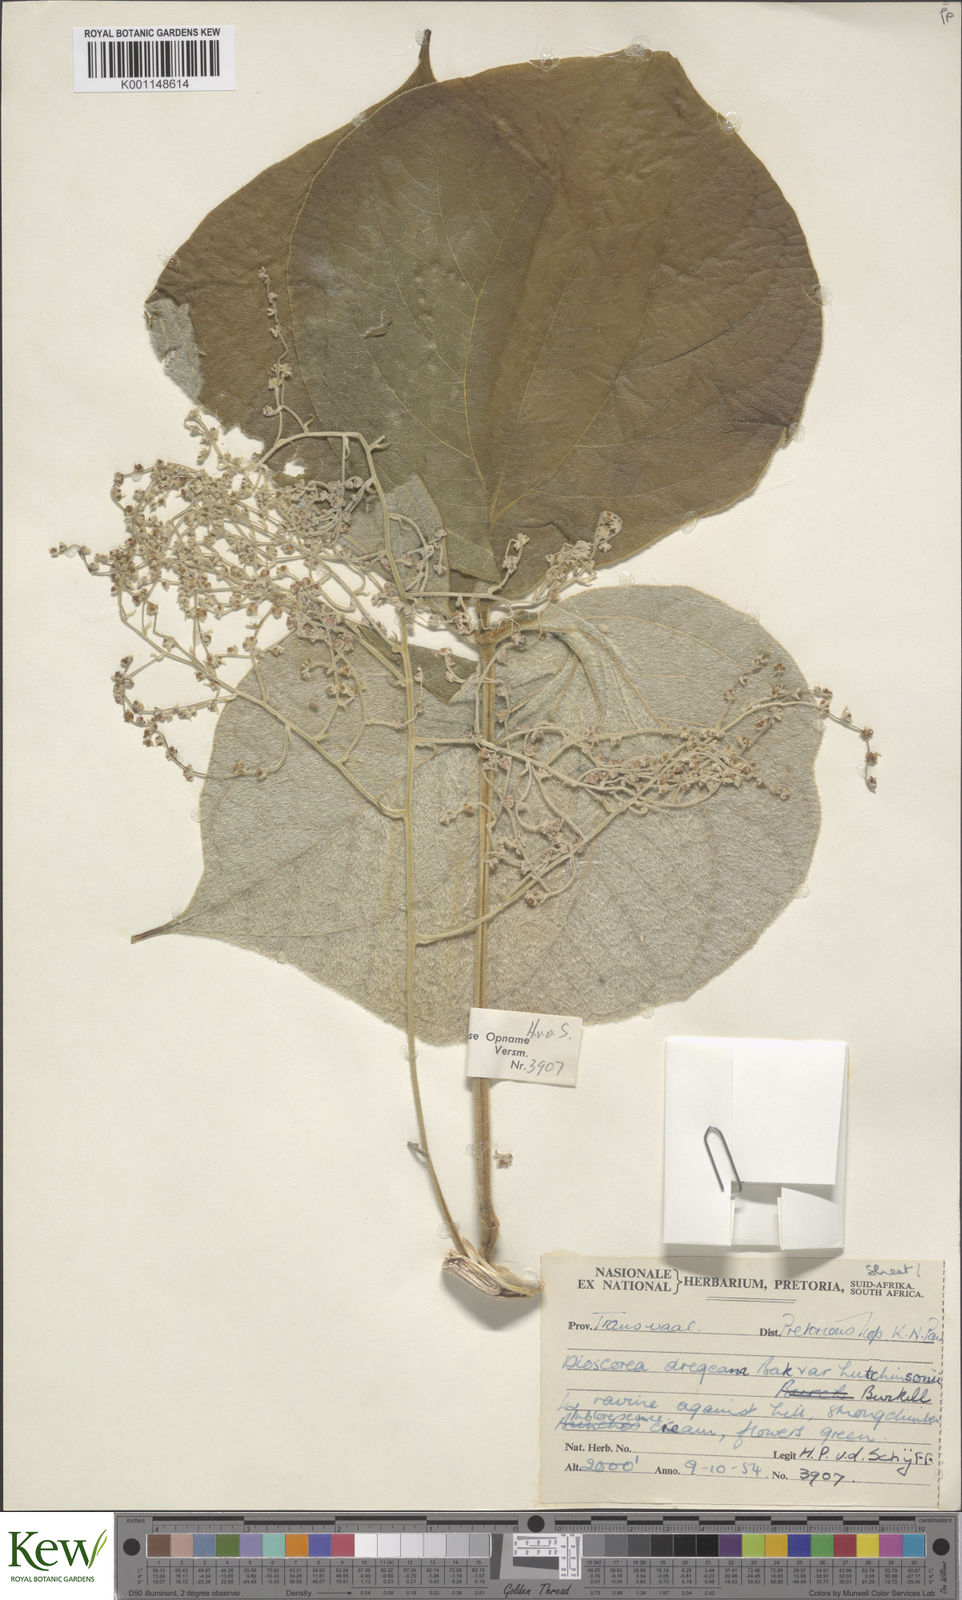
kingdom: Plantae
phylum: Tracheophyta
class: Liliopsida
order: Dioscoreales
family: Dioscoreaceae
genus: Dioscorea
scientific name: Dioscorea dregeana
